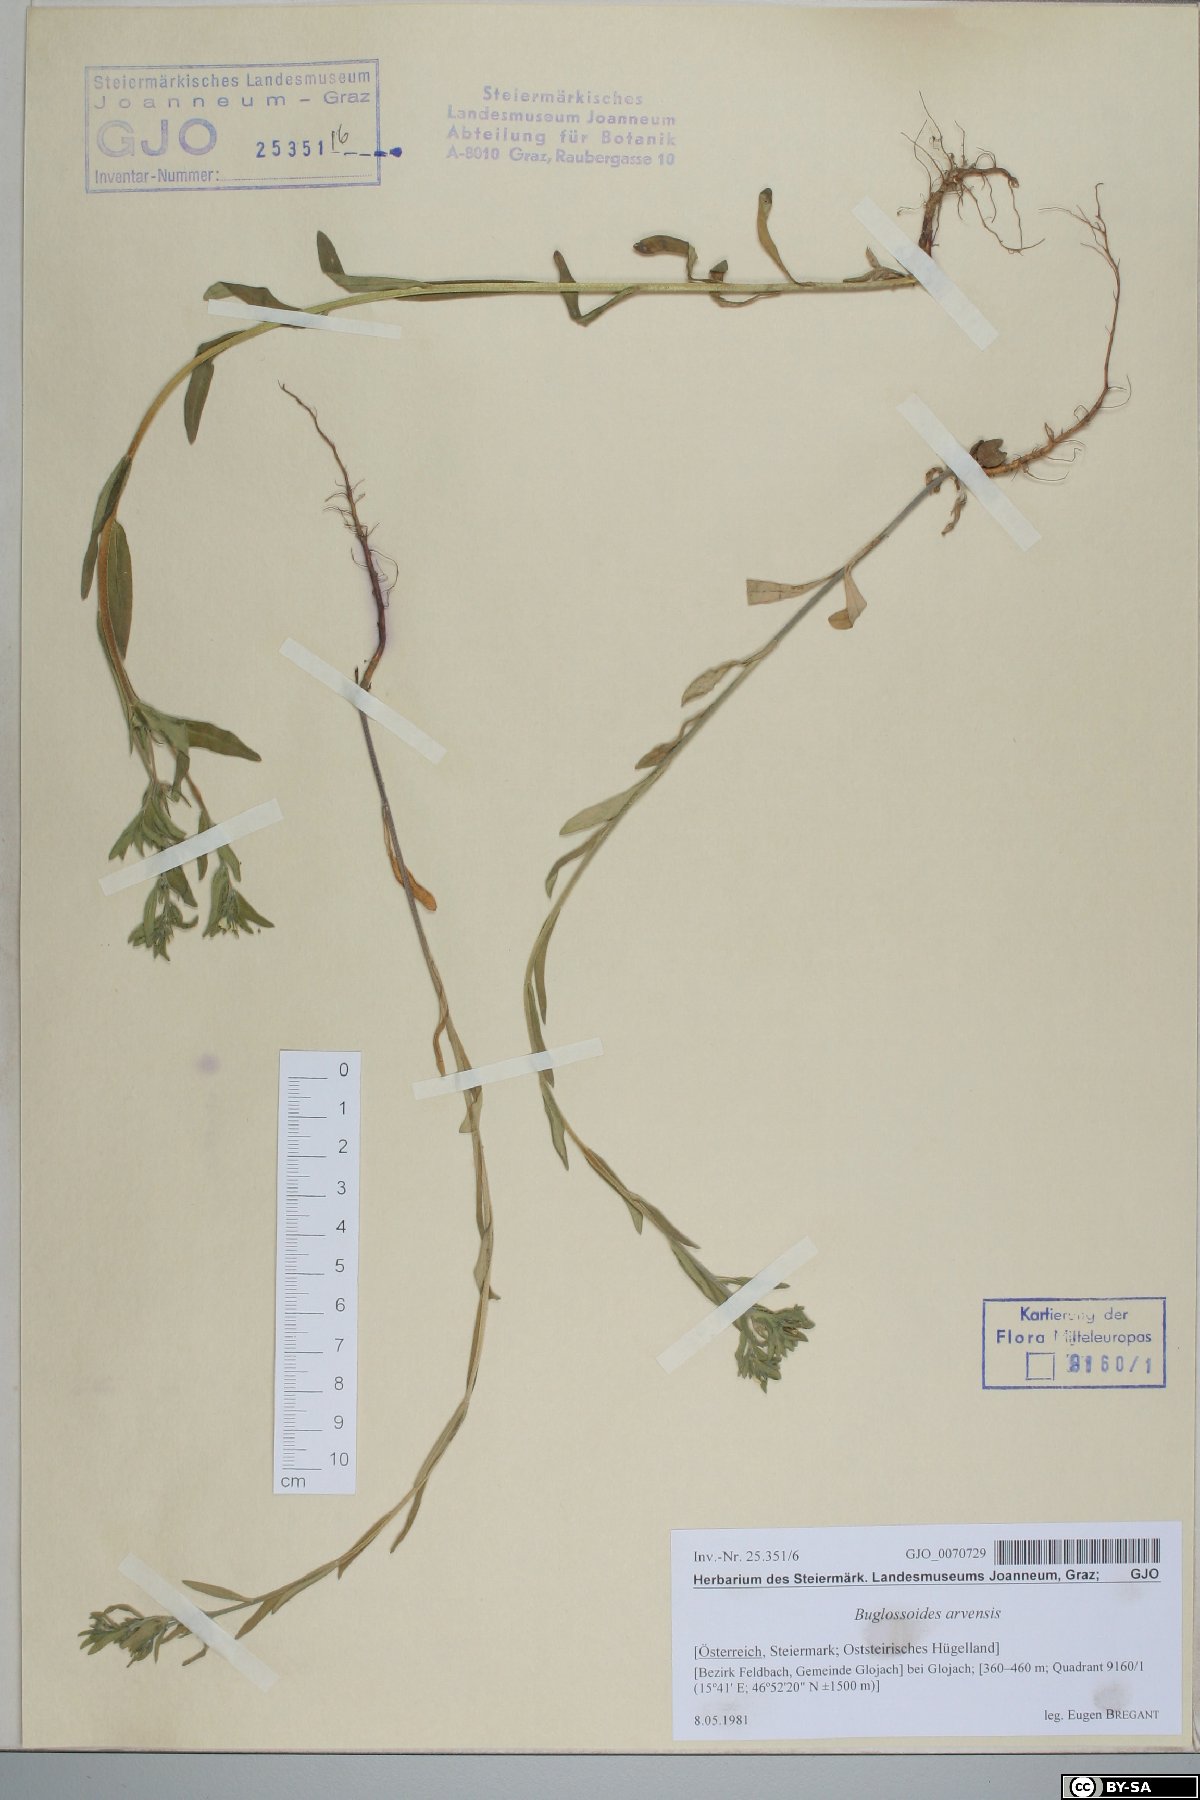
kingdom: Plantae
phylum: Tracheophyta
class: Magnoliopsida
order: Boraginales
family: Boraginaceae
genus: Buglossoides
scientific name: Buglossoides arvensis
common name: Corn gromwell
